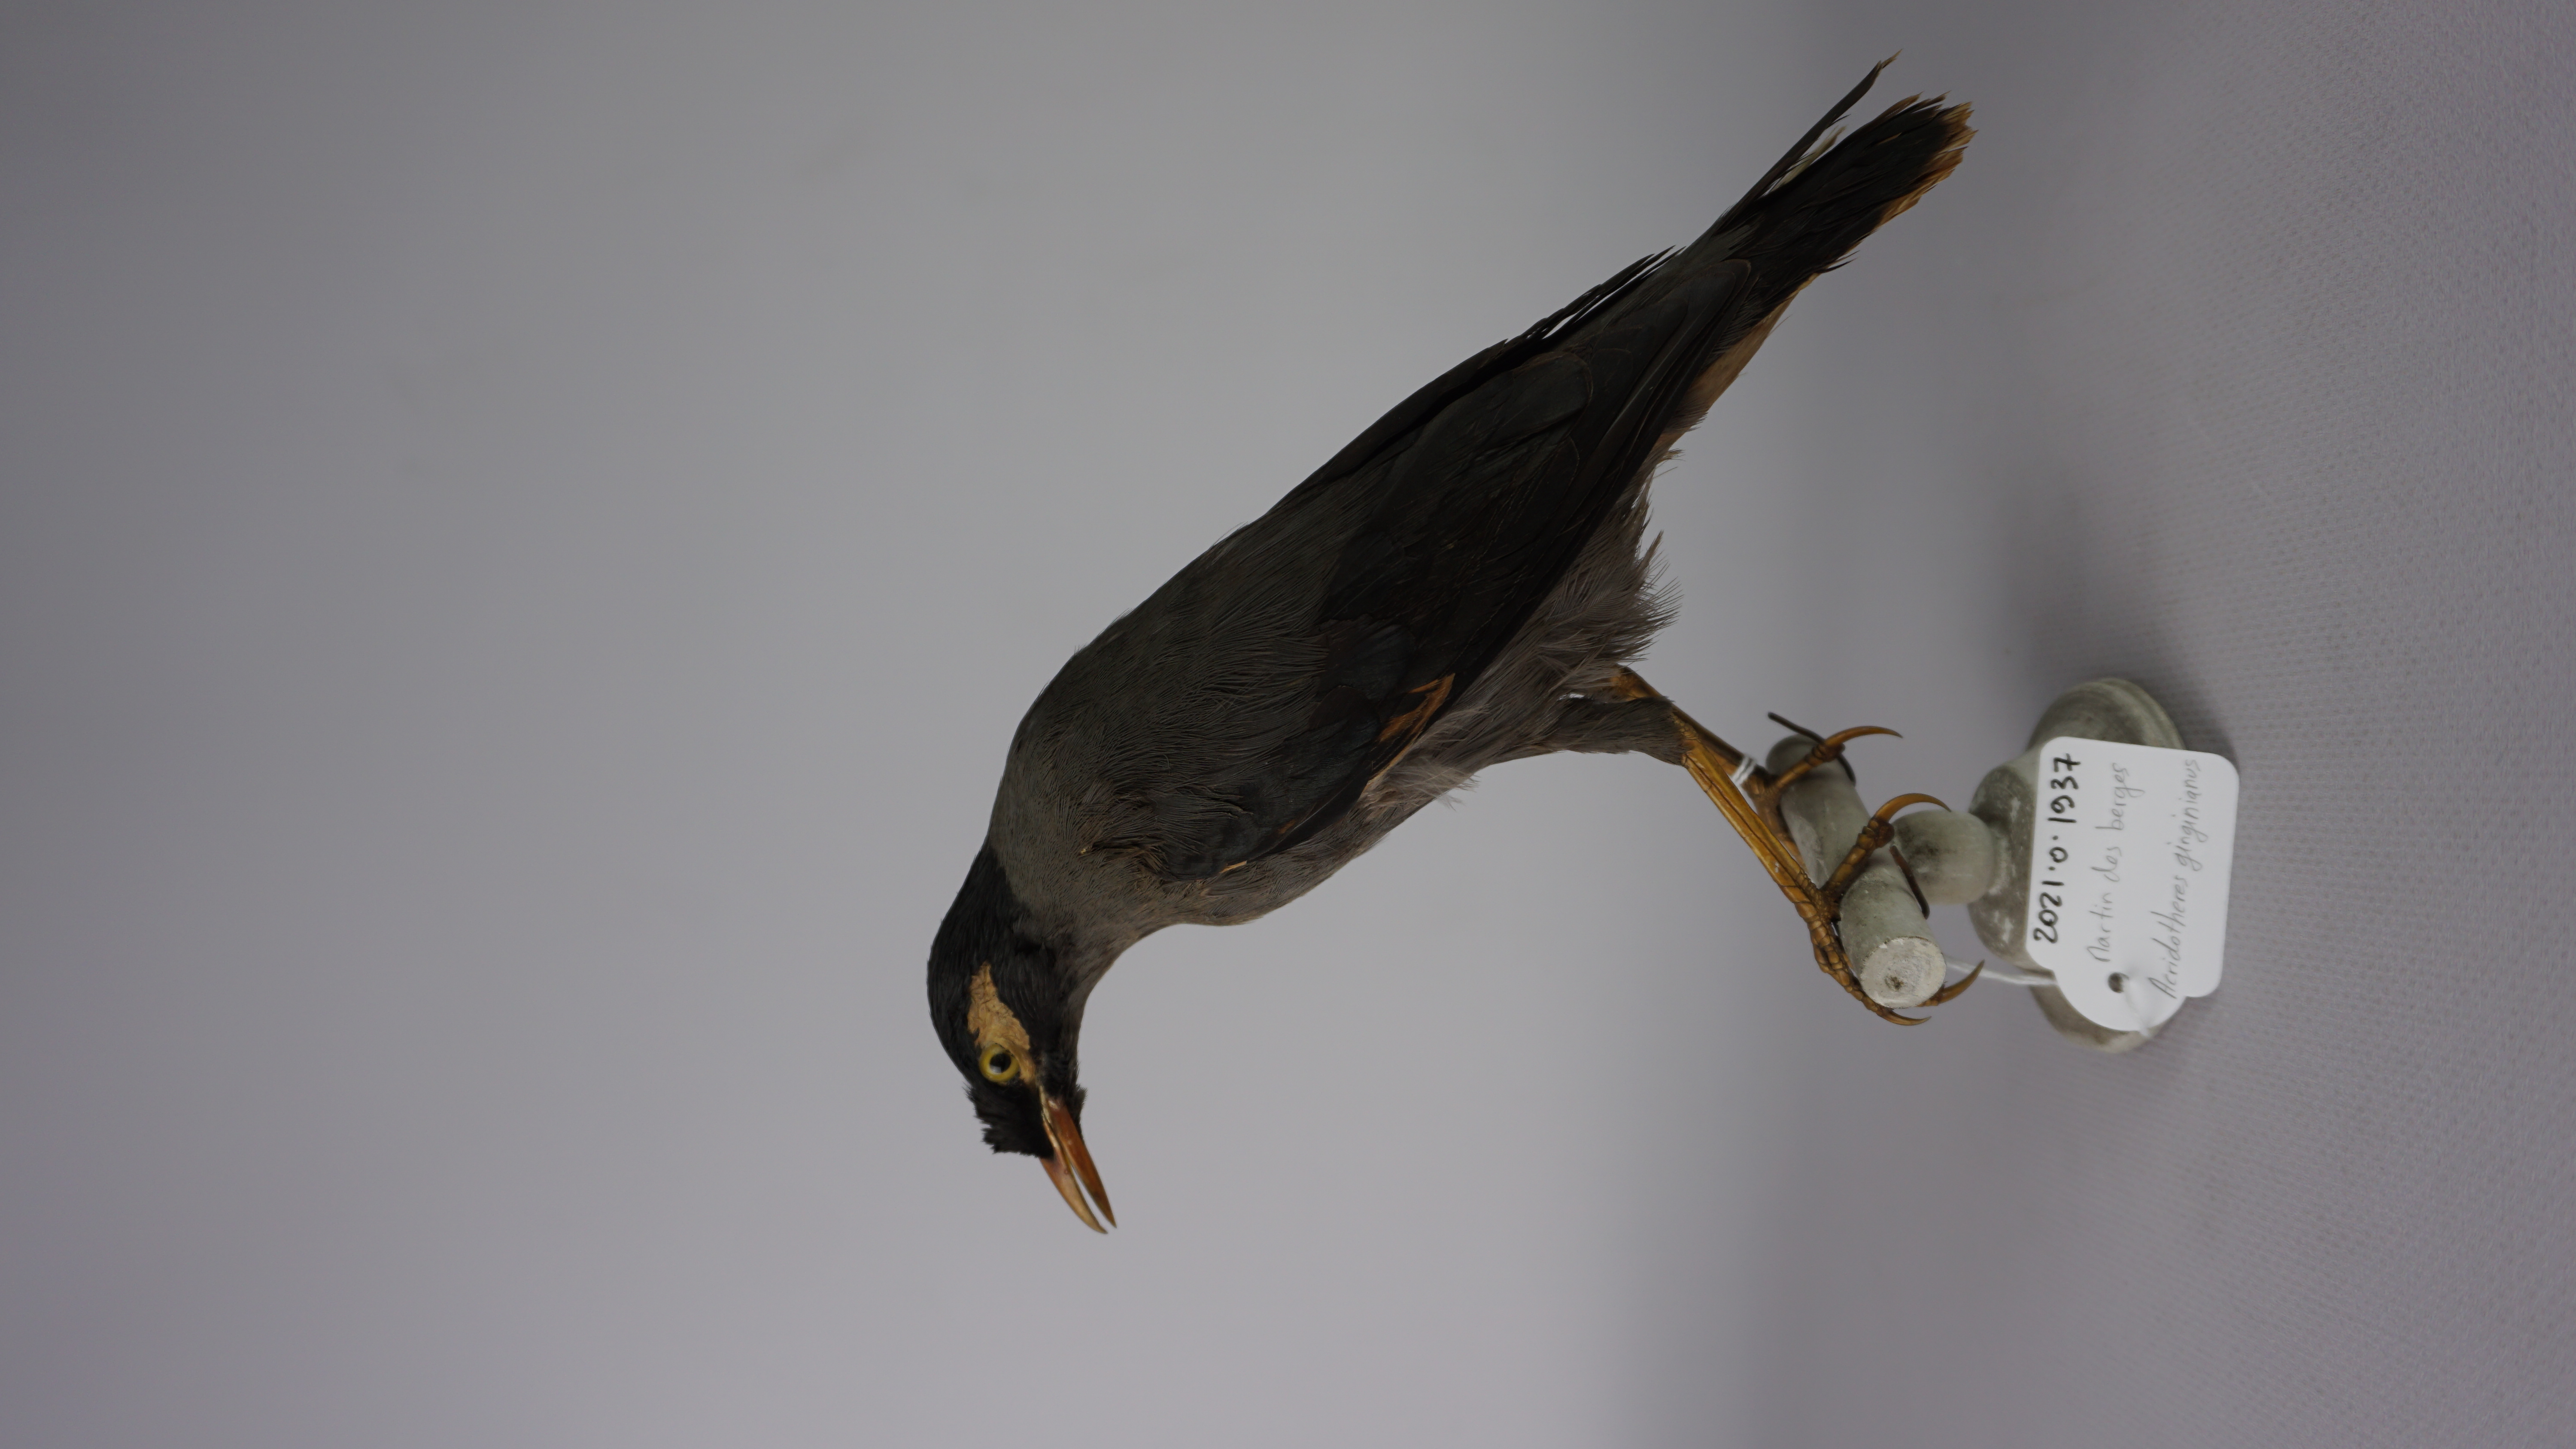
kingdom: Animalia
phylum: Chordata
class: Aves
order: Passeriformes
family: Sturnidae
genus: Acridotheres
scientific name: Acridotheres ginginianus
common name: Bank myna
